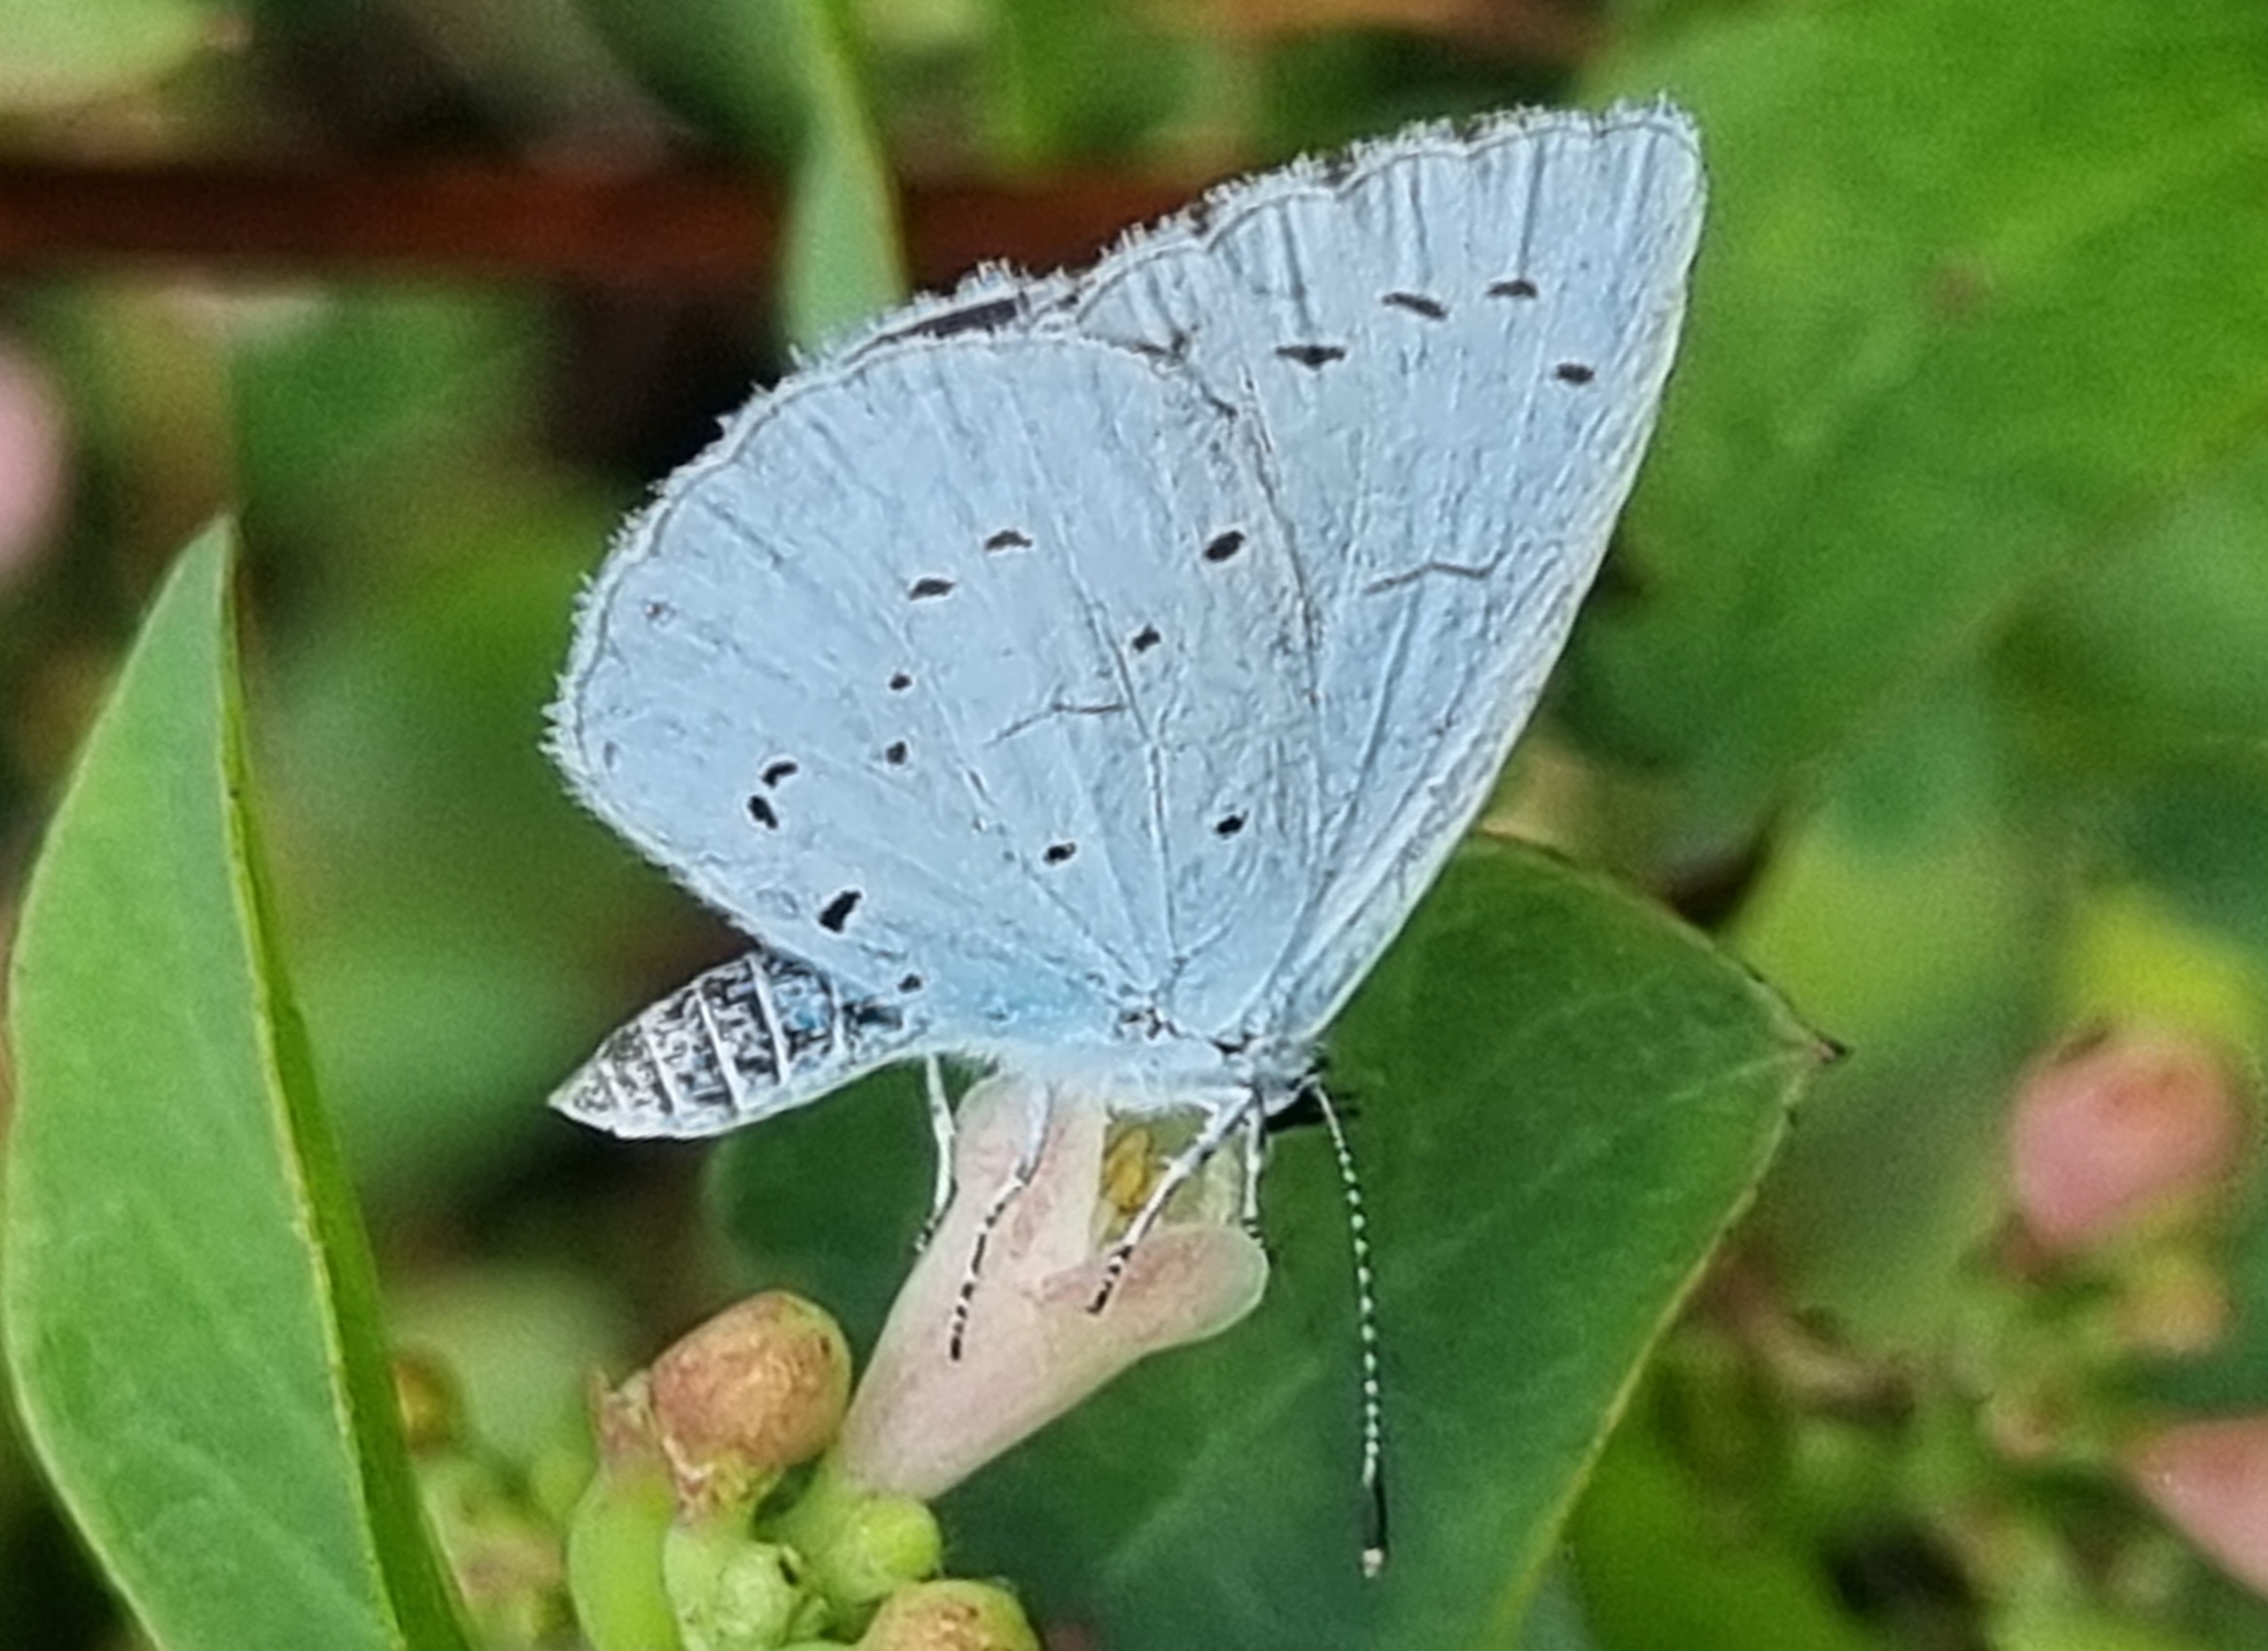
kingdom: Animalia
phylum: Arthropoda
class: Insecta
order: Lepidoptera
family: Lycaenidae
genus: Celastrina
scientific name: Celastrina argiolus
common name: Skovblåfugl
